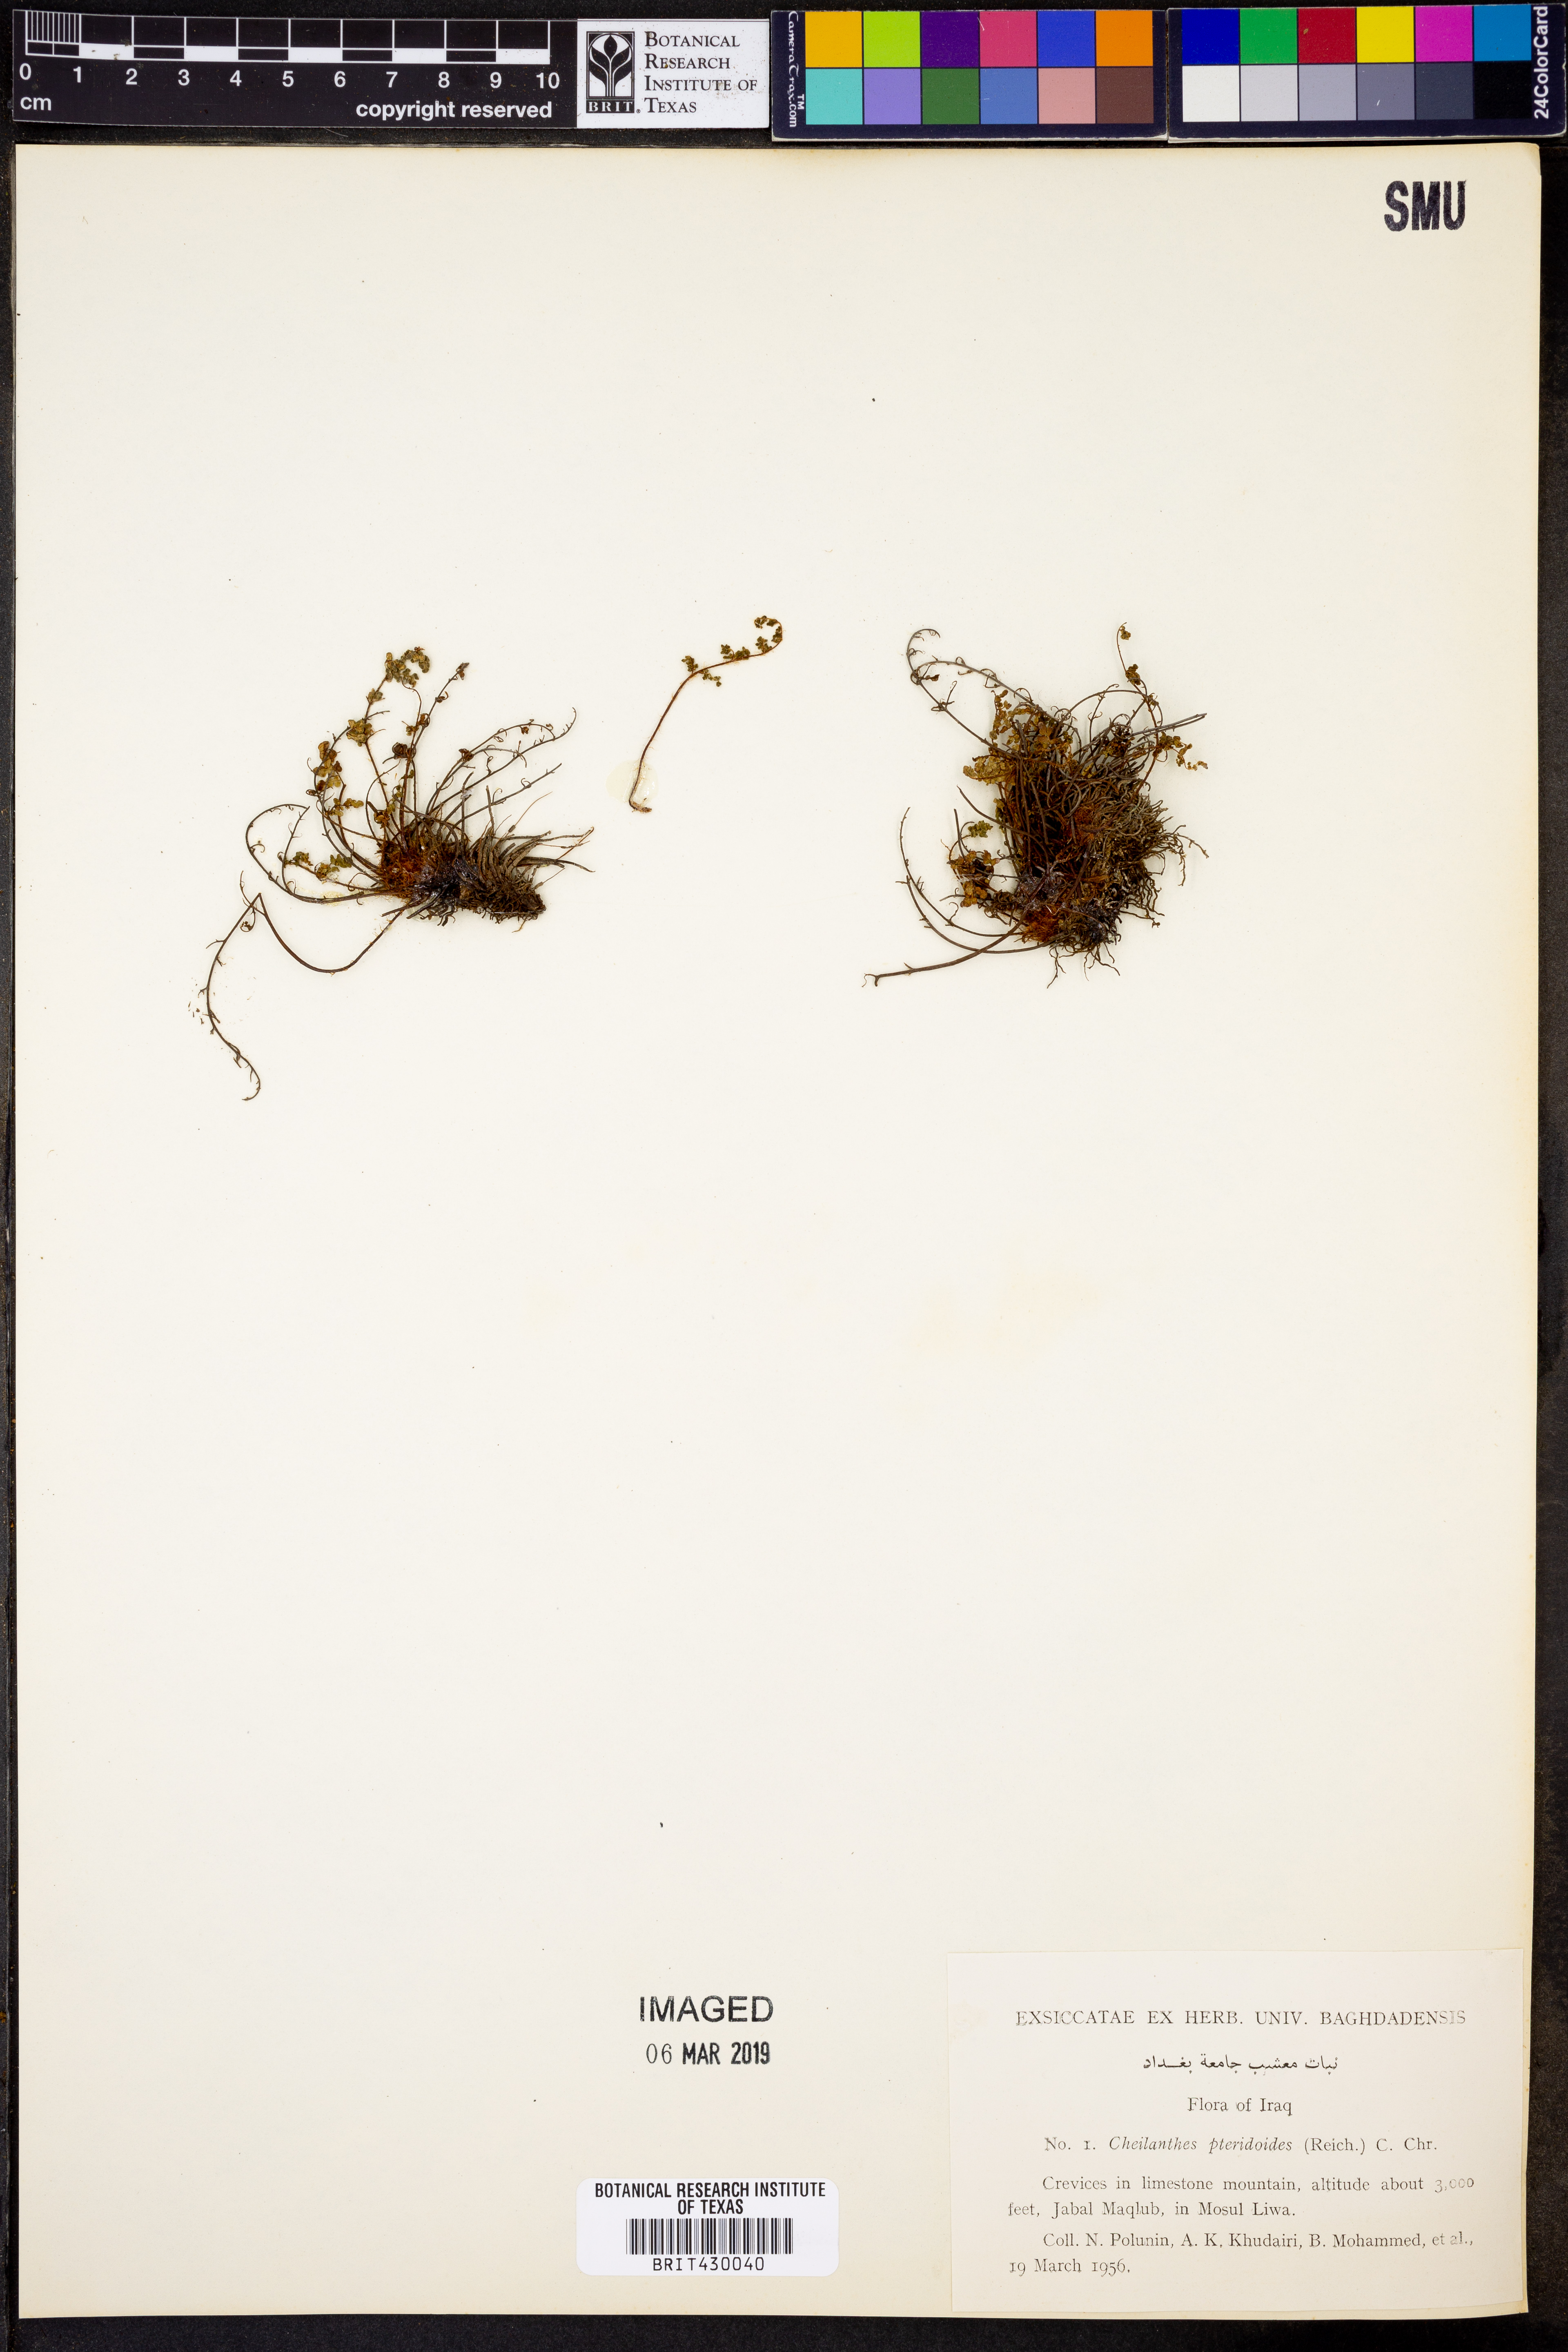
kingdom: Plantae
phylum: Tracheophyta
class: Polypodiopsida
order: Polypodiales
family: Pteridaceae
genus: Oeosporangium
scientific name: Oeosporangium pteridioides
